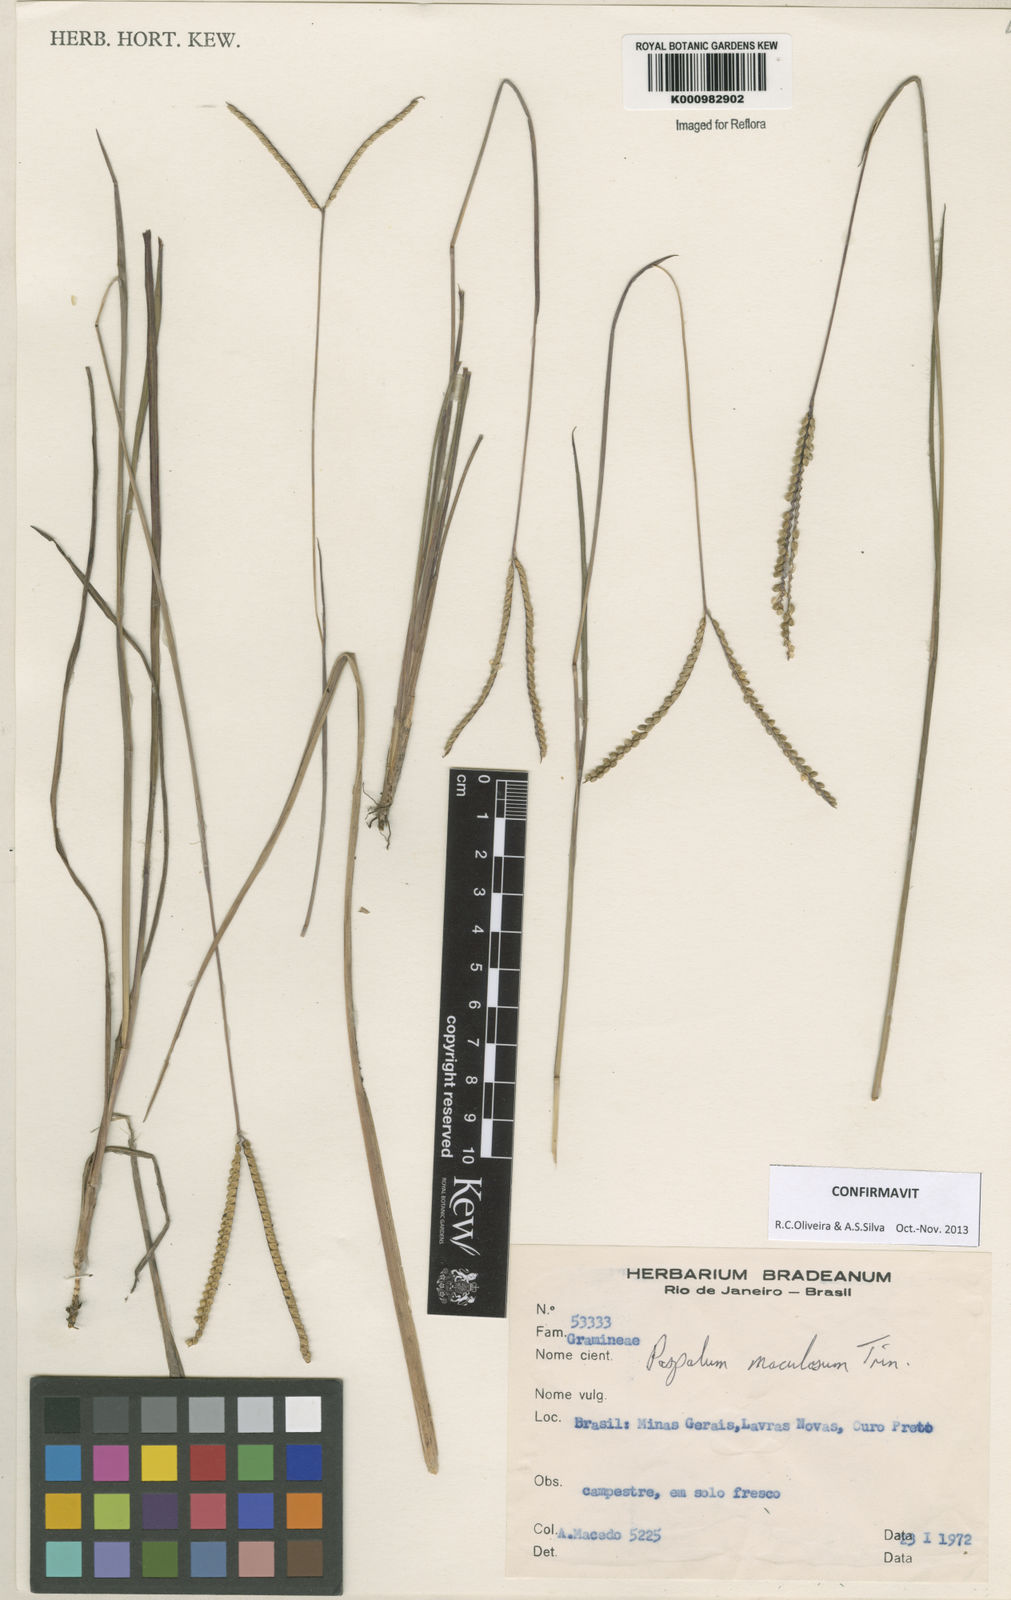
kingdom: Plantae
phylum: Tracheophyta
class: Liliopsida
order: Poales
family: Poaceae
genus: Paspalum
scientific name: Paspalum maculosum
